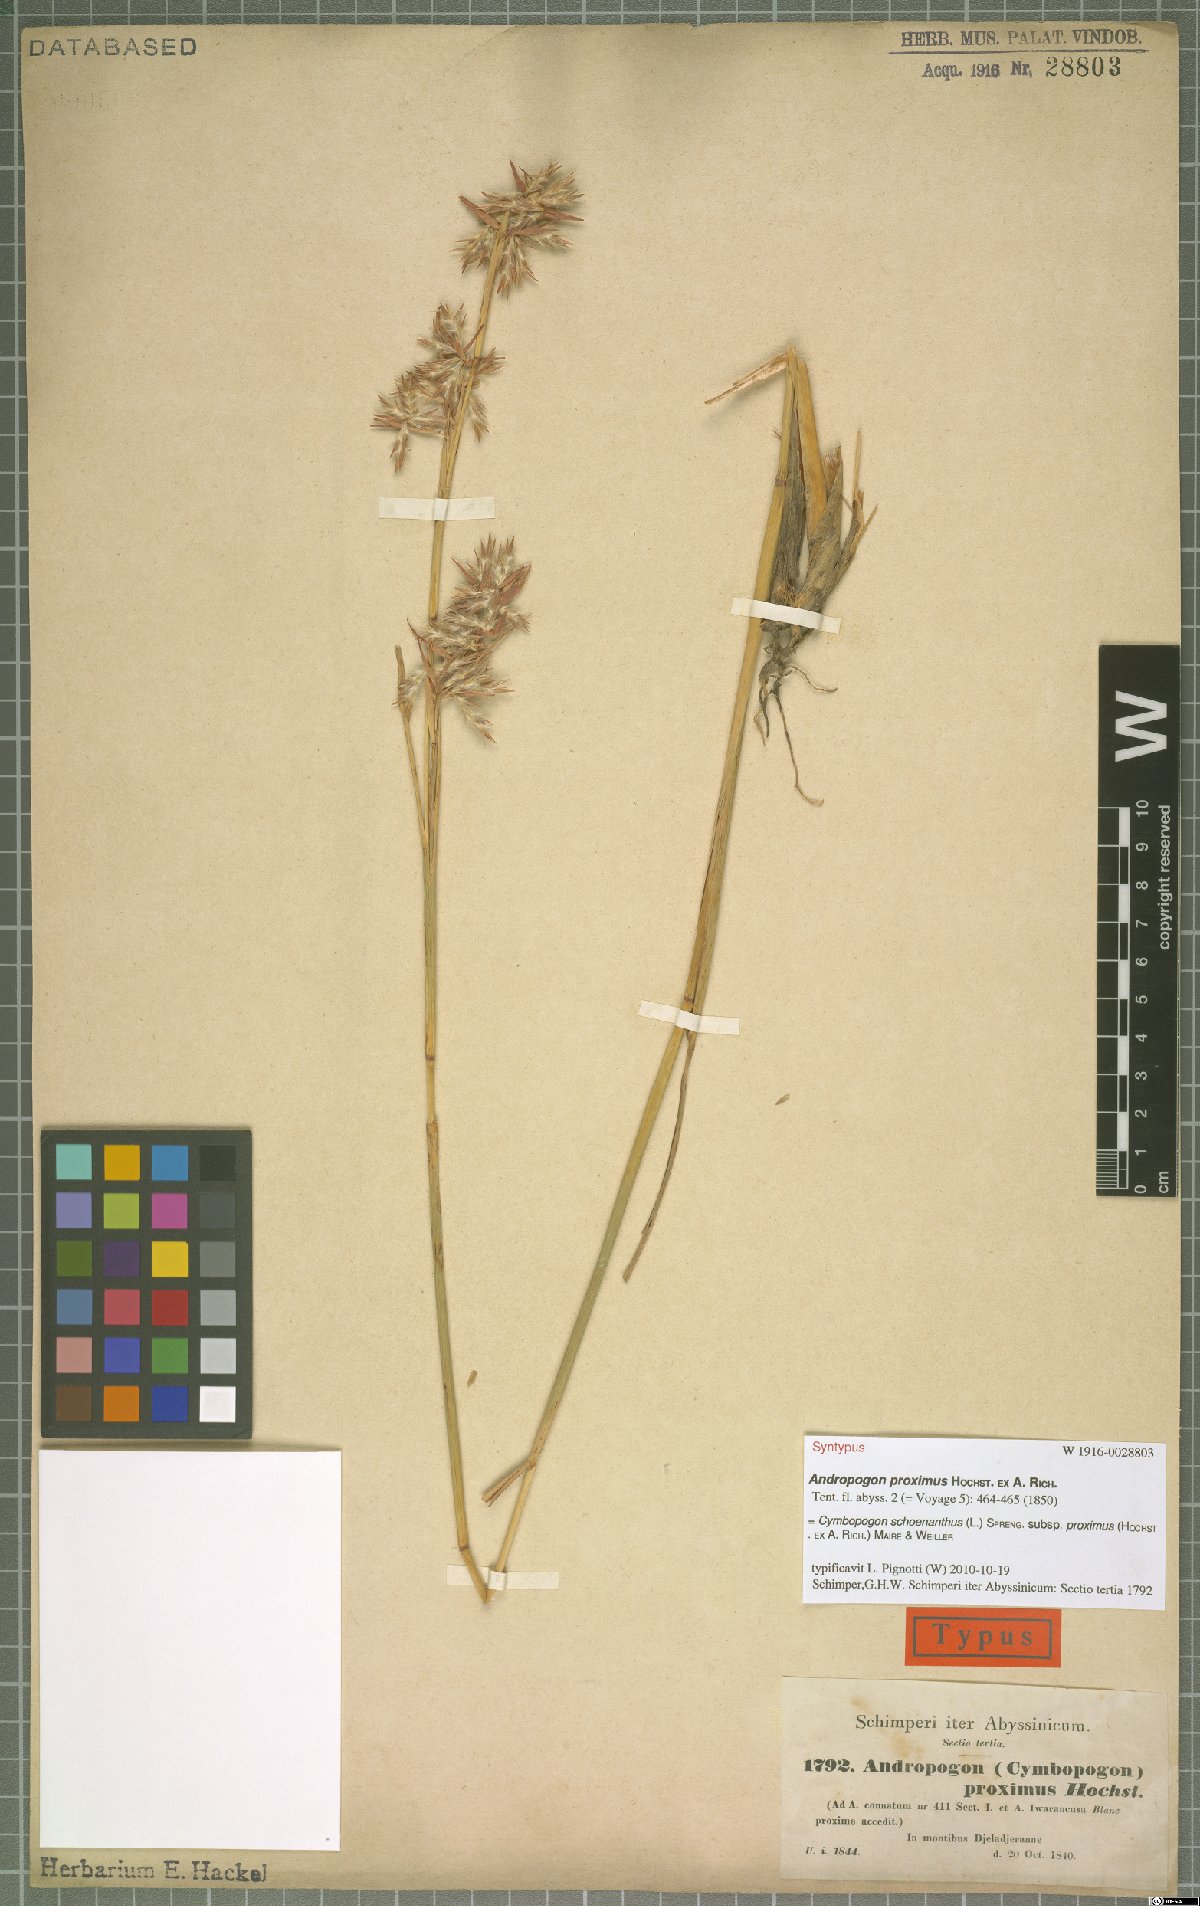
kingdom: Plantae
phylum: Tracheophyta
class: Liliopsida
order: Poales
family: Poaceae
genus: Cymbopogon
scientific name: Cymbopogon schoenanthus
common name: Geranium grass
